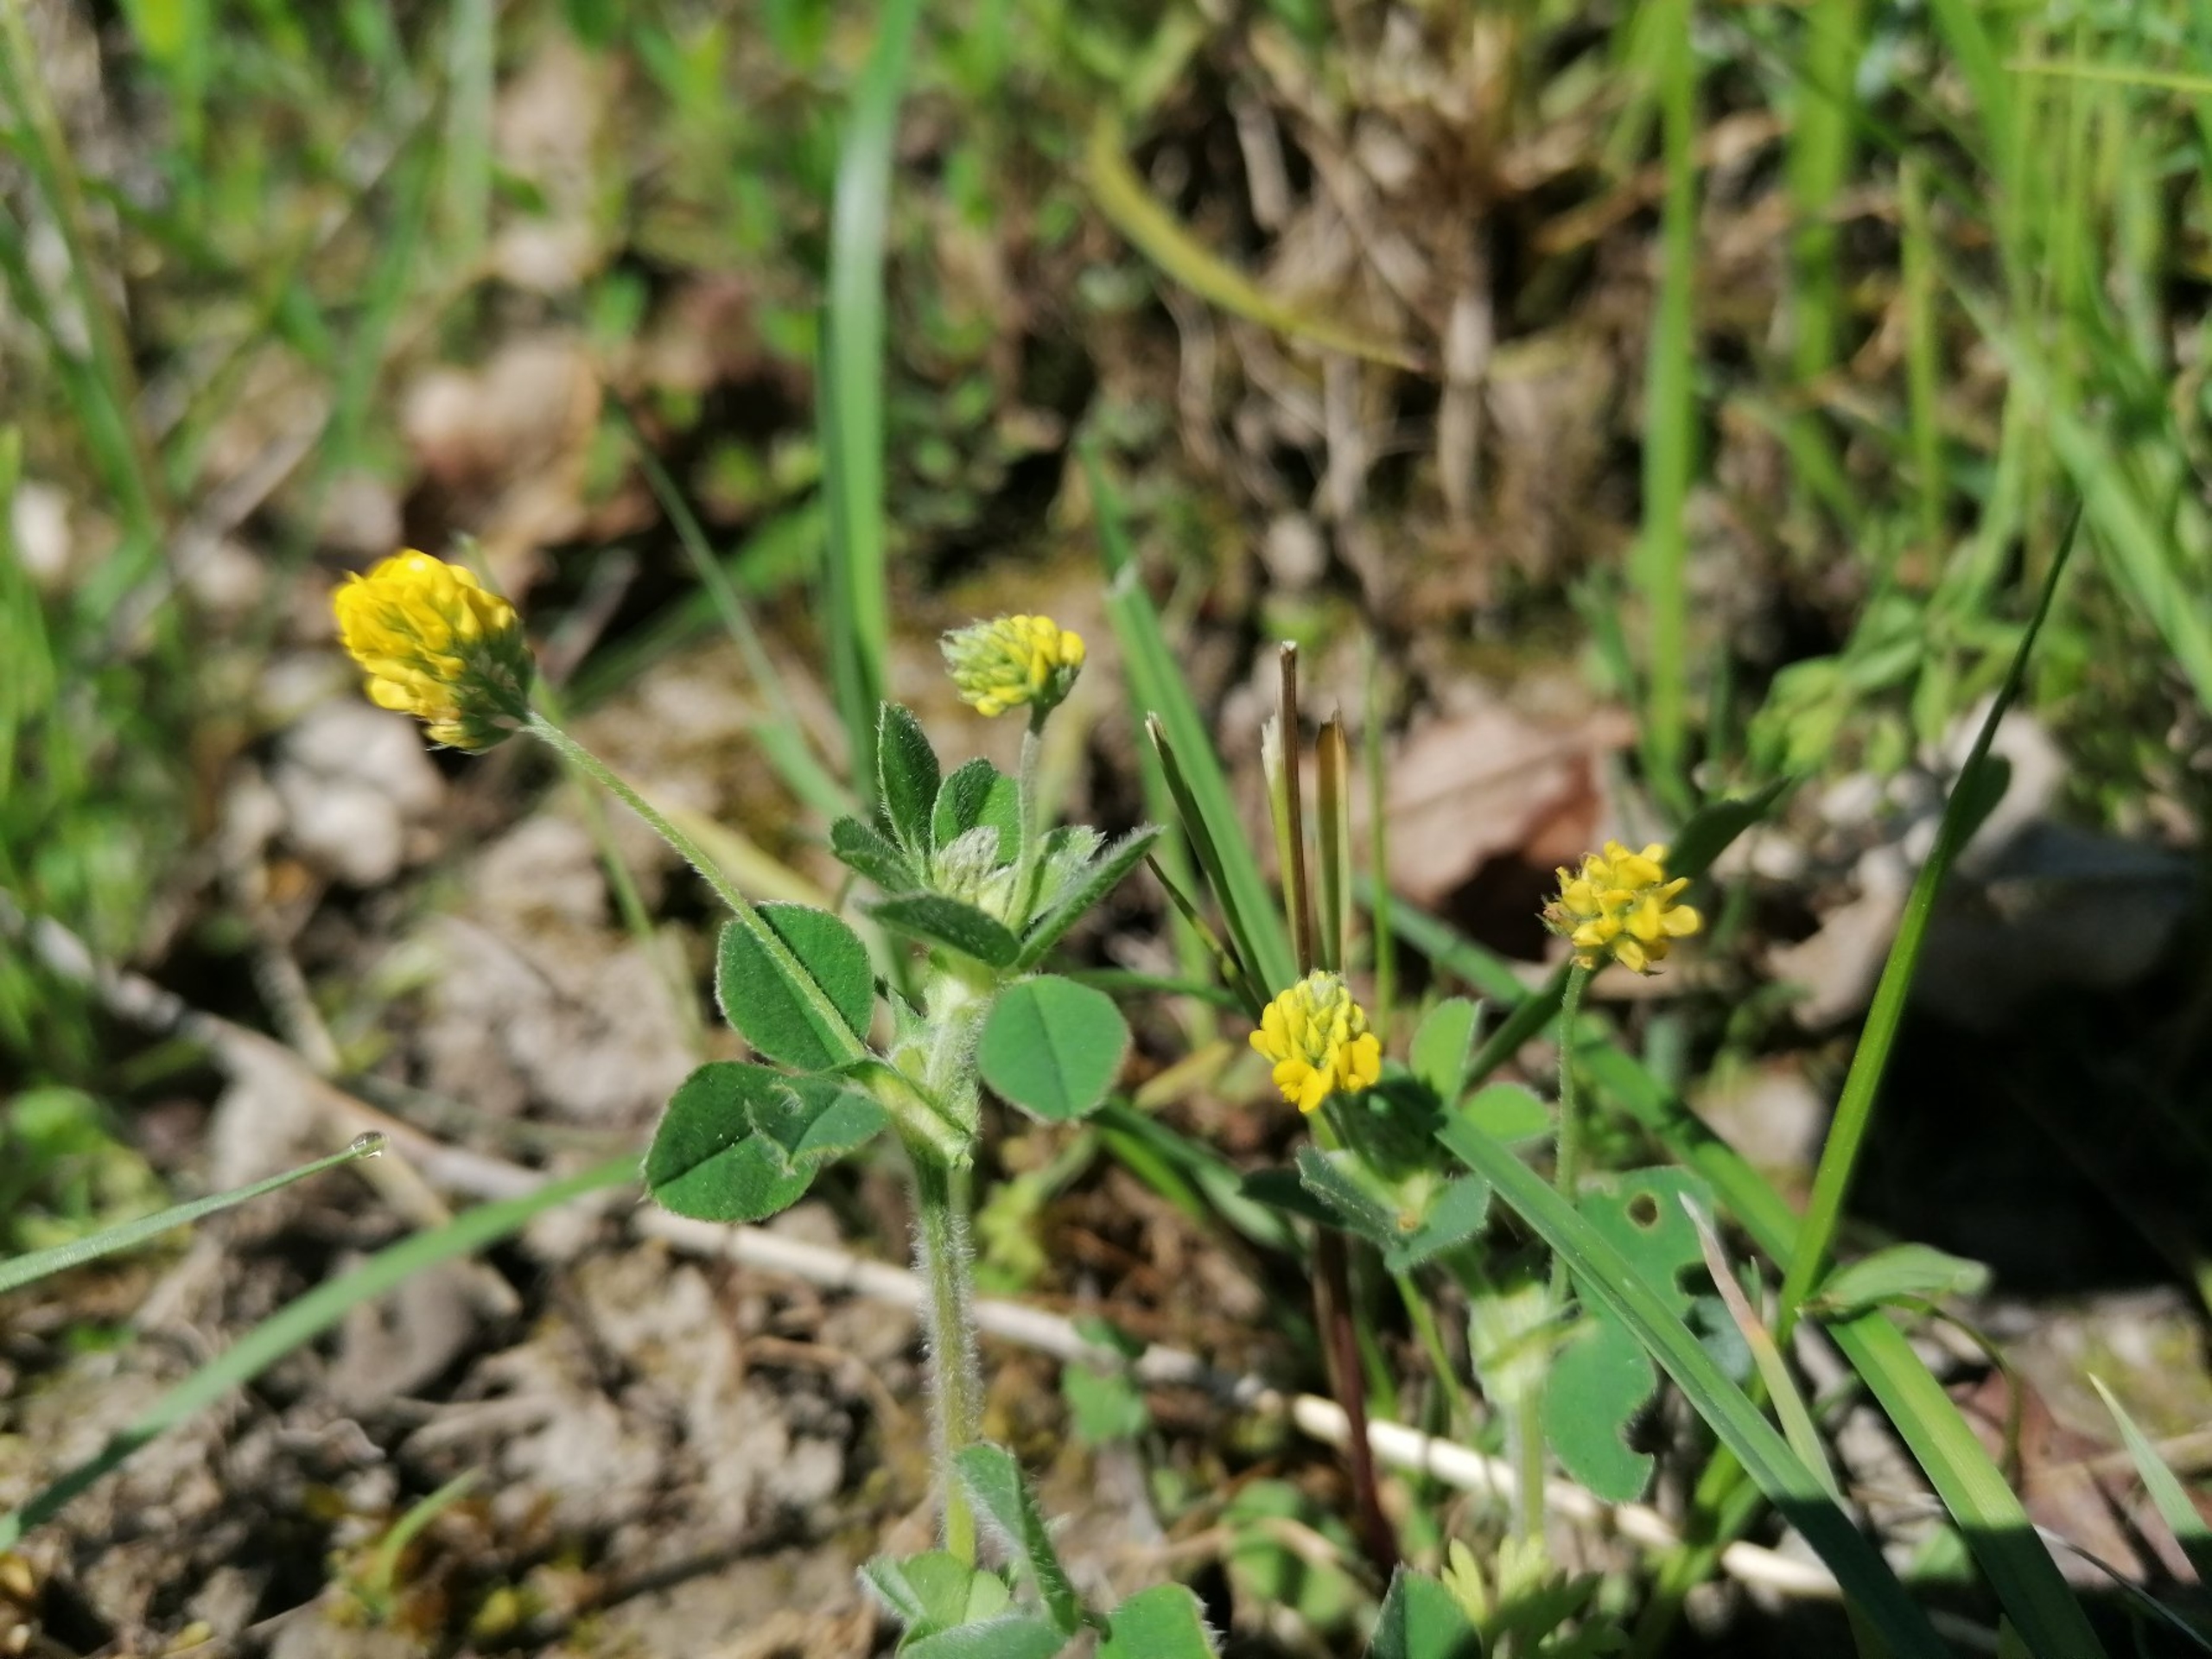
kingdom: Plantae
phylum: Tracheophyta
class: Magnoliopsida
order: Fabales
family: Fabaceae
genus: Medicago
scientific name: Medicago lupulina
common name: Humle-sneglebælg
